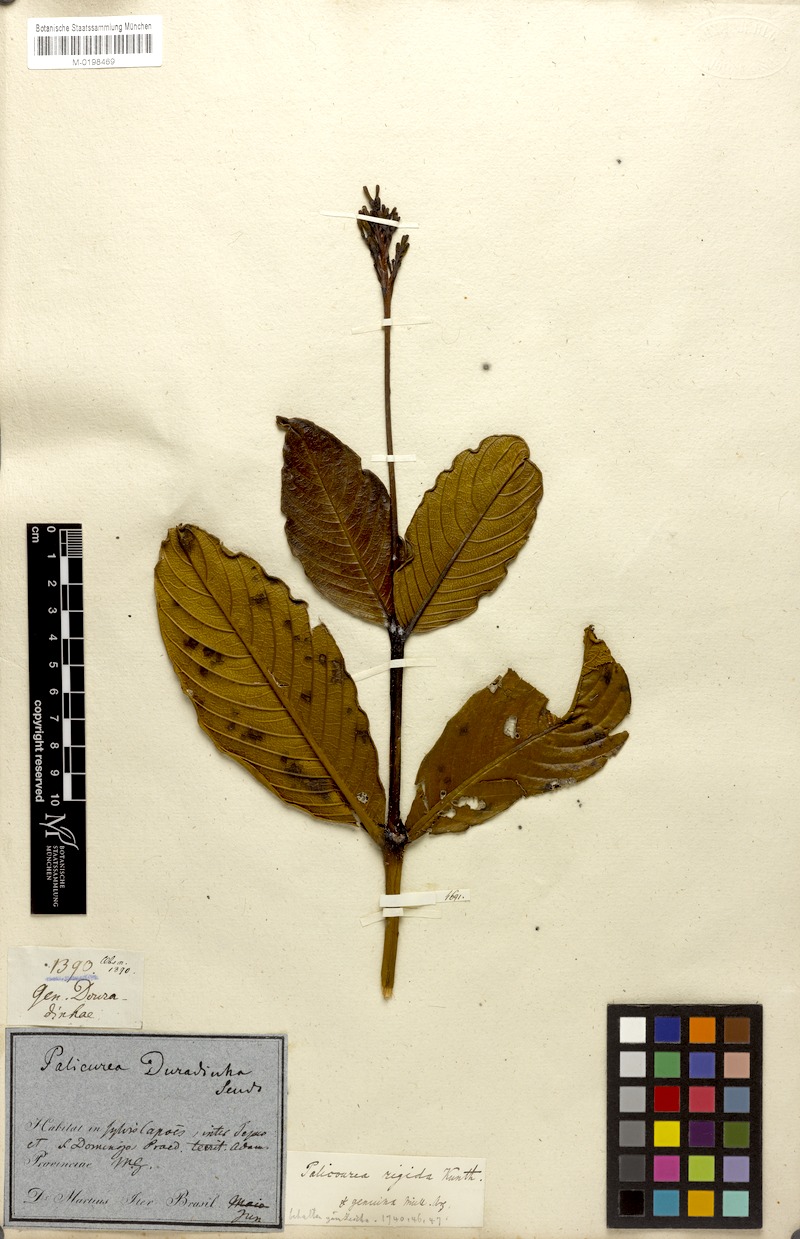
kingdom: Plantae
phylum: Tracheophyta
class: Magnoliopsida
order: Gentianales
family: Rubiaceae
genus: Palicourea
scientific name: Palicourea rigida
